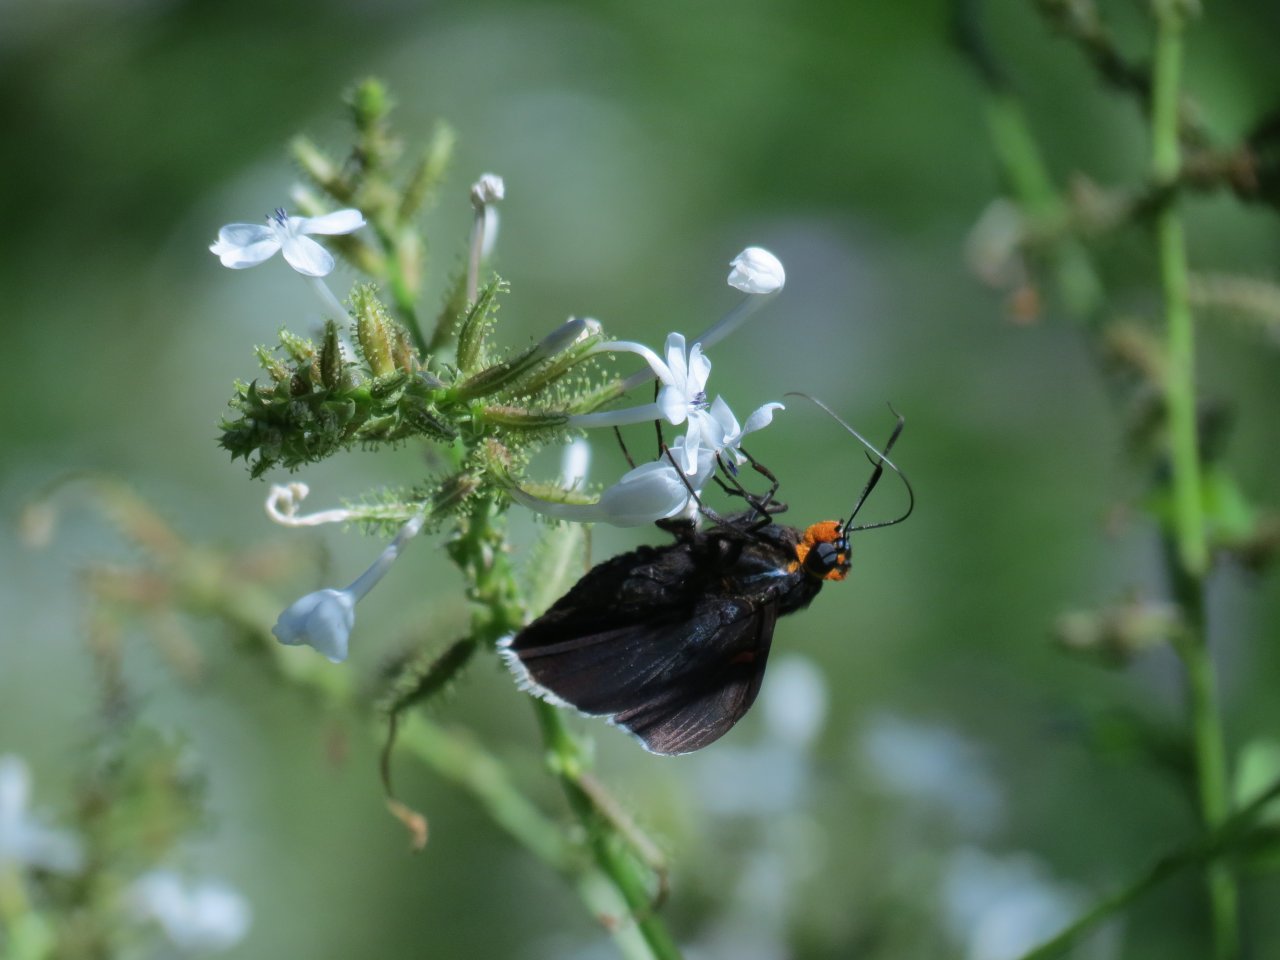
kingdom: Animalia
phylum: Arthropoda
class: Insecta
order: Lepidoptera
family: Hesperiidae
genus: Phocides
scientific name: Phocides polybius
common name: Guava Skipper
